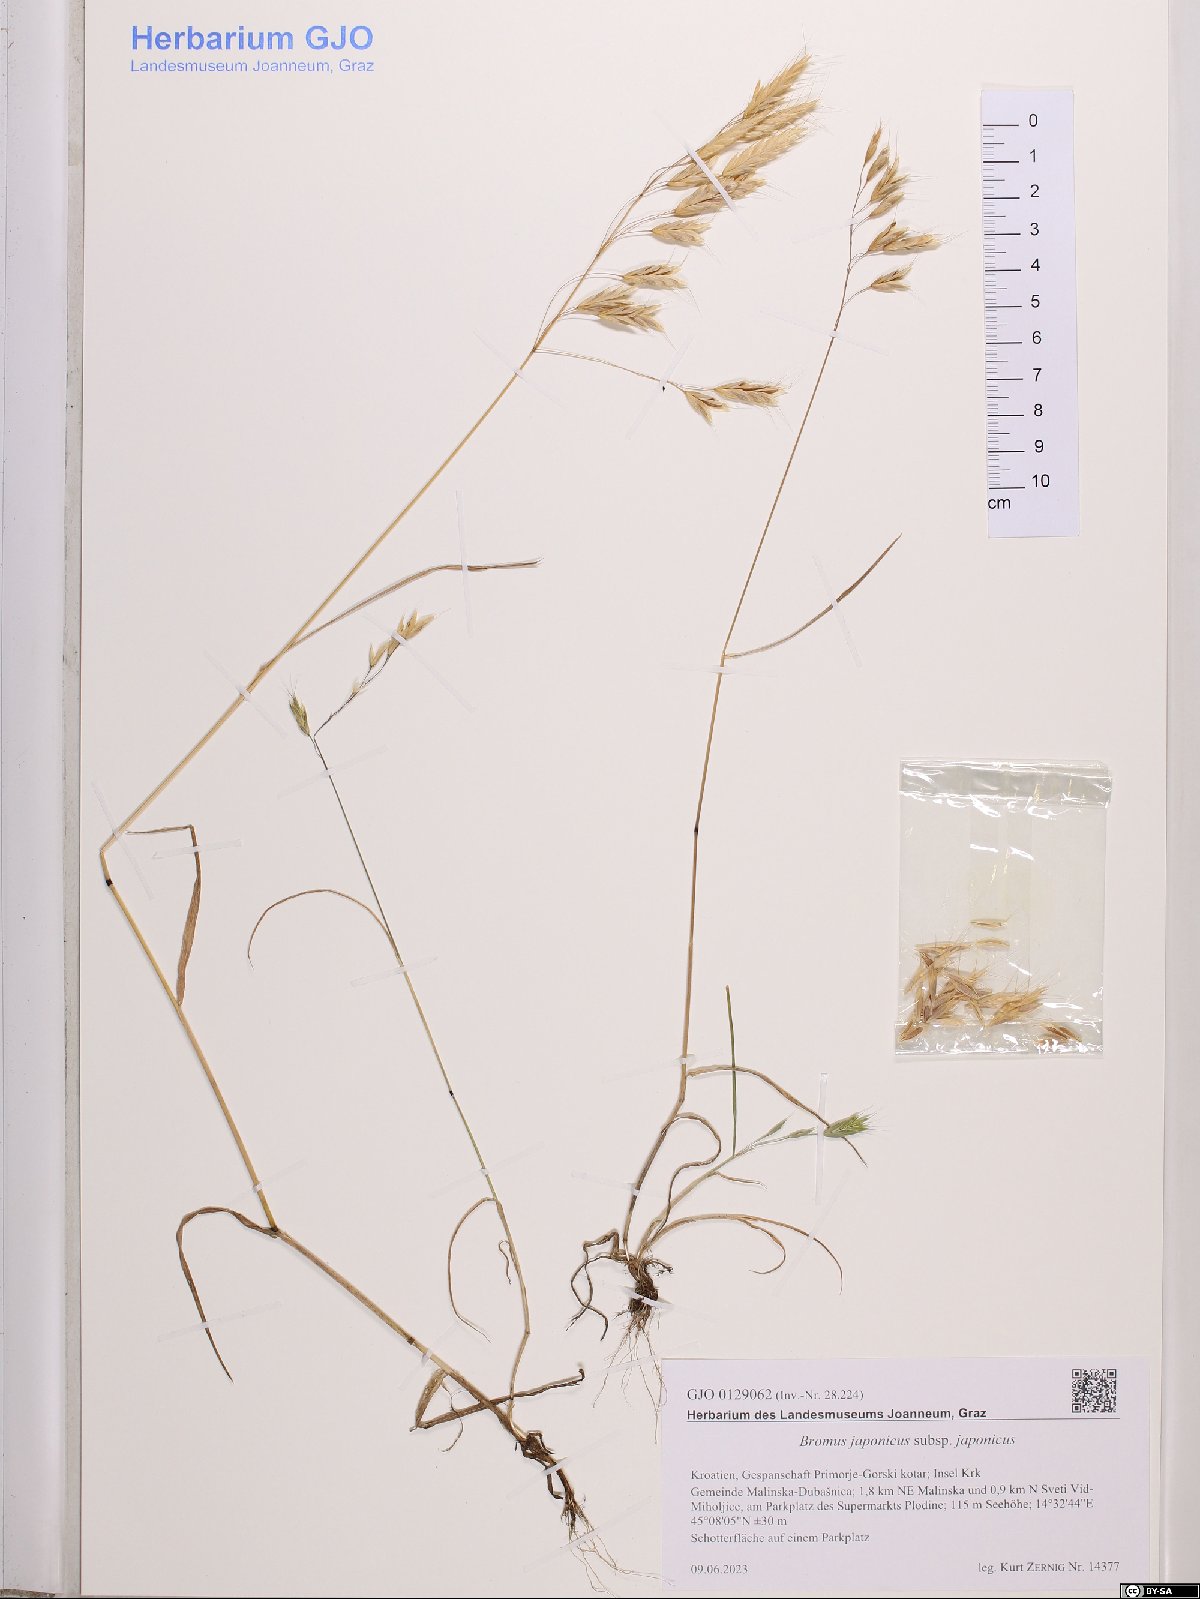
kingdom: Plantae
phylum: Tracheophyta
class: Liliopsida
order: Poales
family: Poaceae
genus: Bromus
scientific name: Bromus japonicus
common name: Japanese brome
